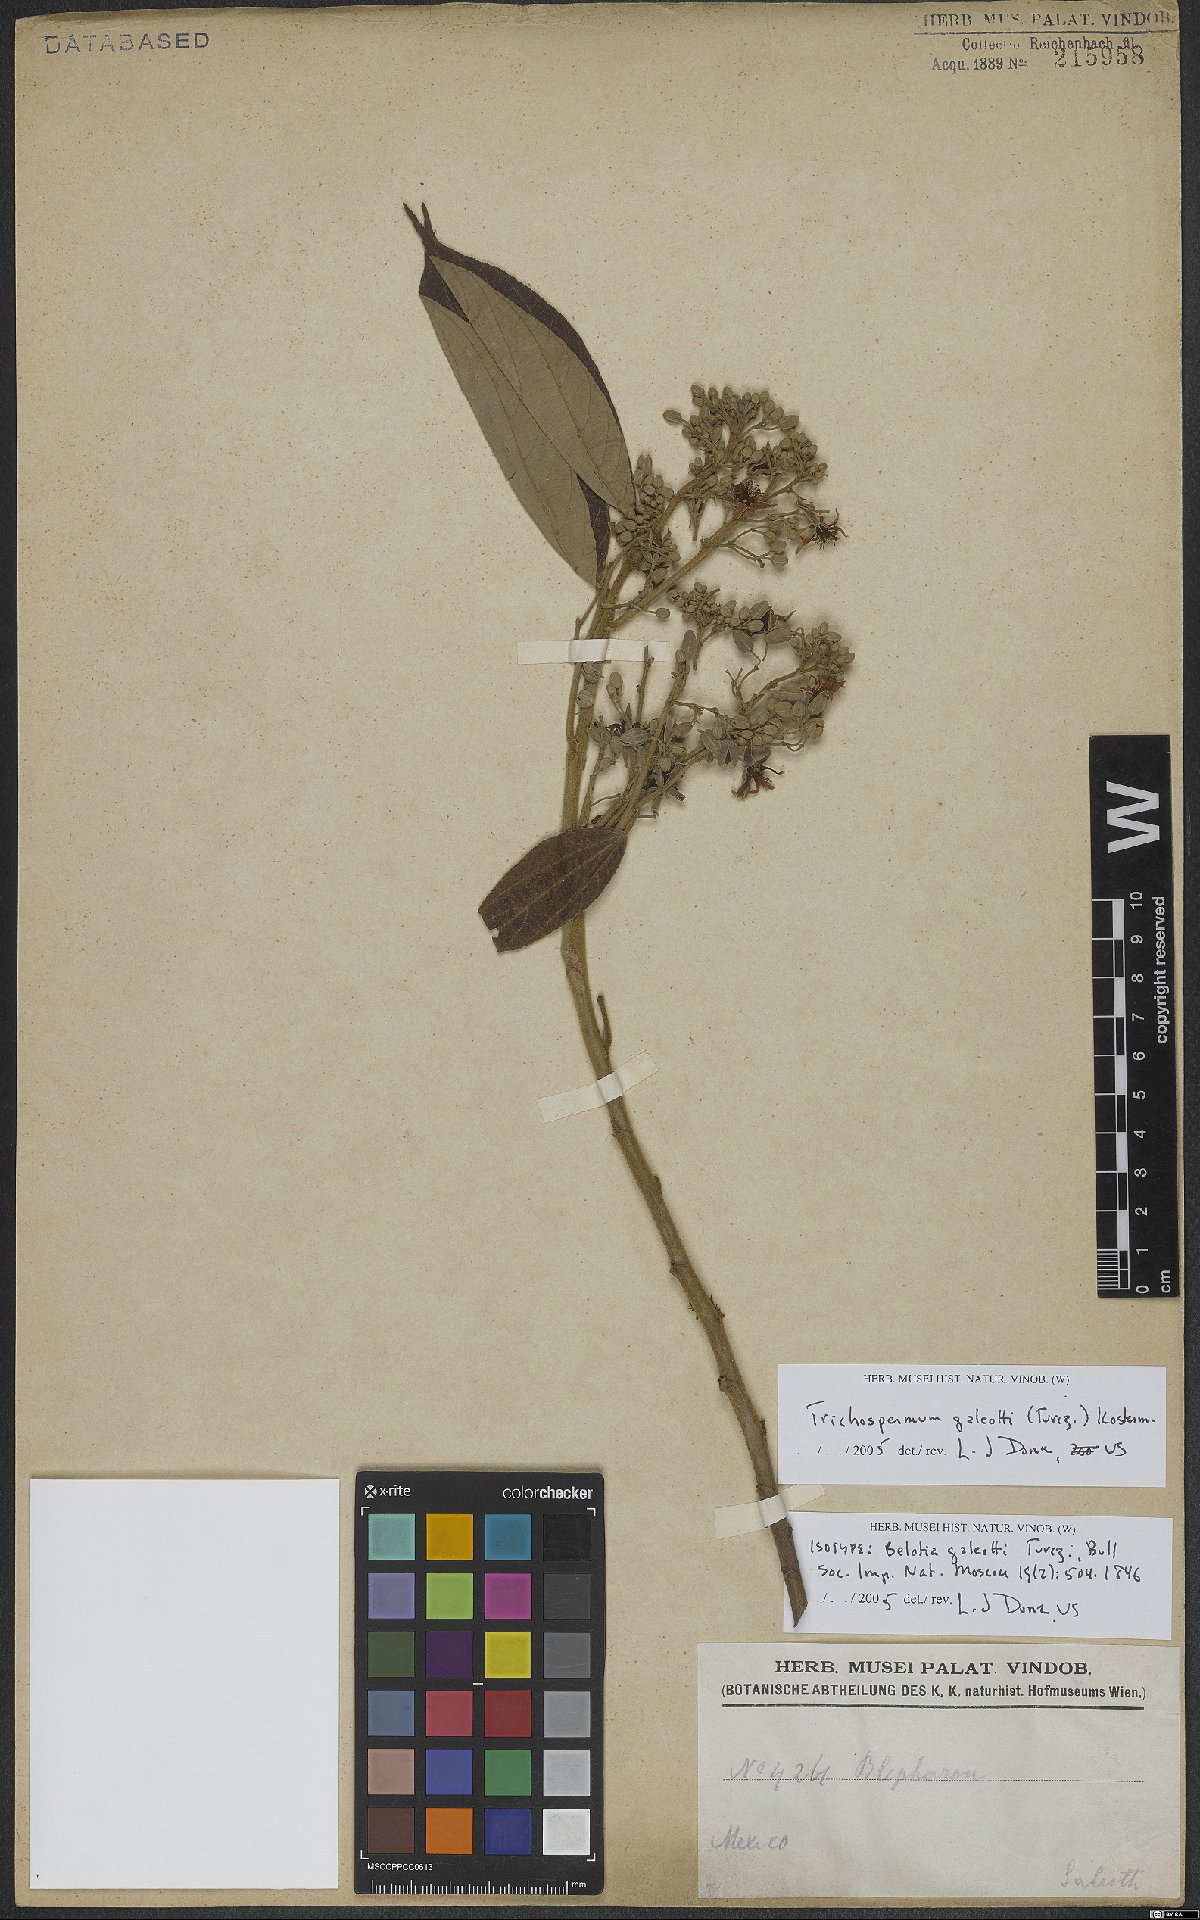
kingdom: Plantae
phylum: Tracheophyta
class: Magnoliopsida
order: Malvales
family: Malvaceae
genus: Trichospermum
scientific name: Trichospermum galeottii
